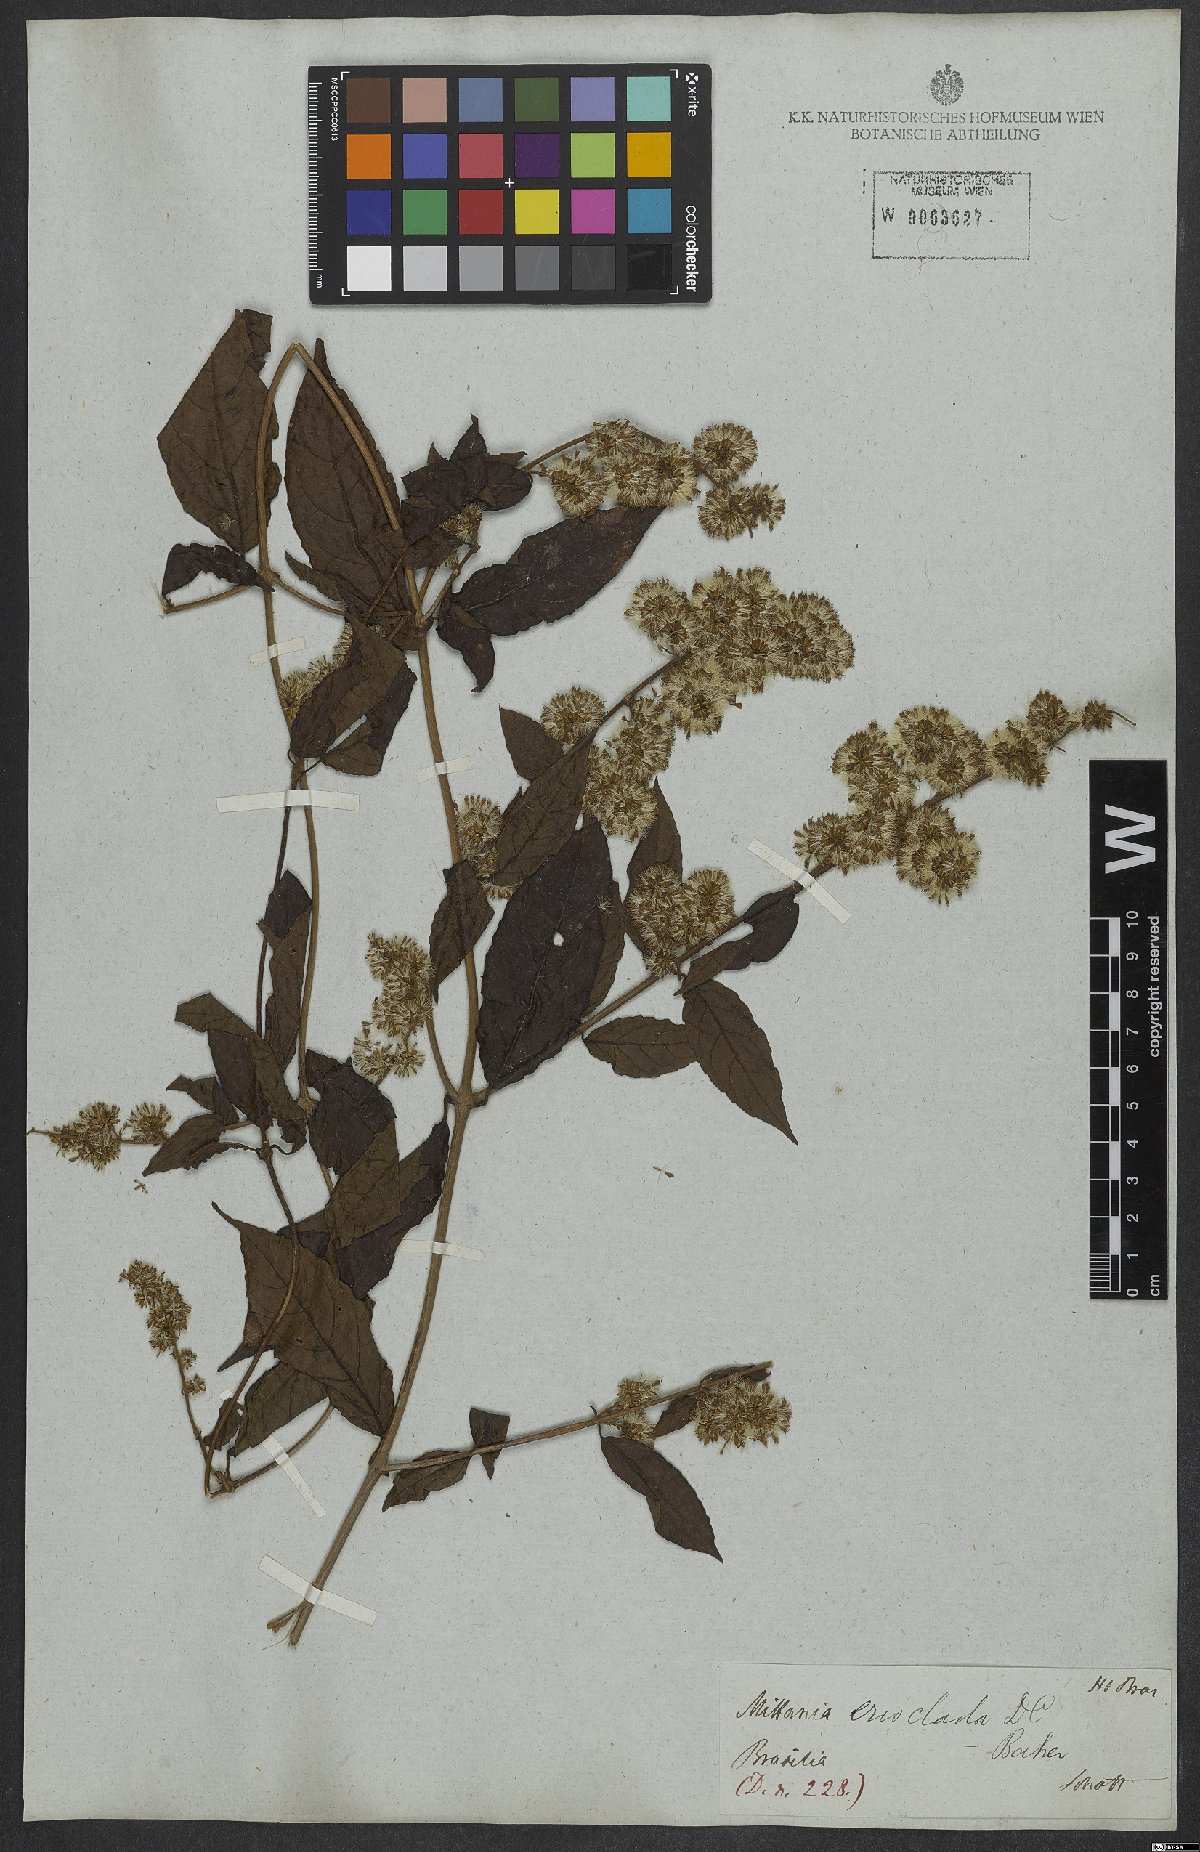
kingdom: Plantae
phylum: Tracheophyta
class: Magnoliopsida
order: Asterales
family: Asteraceae
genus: Mikania
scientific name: Mikania erioclada
